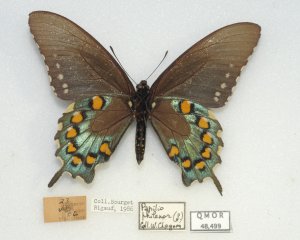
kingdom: Animalia
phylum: Arthropoda
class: Insecta
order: Lepidoptera
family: Papilionidae
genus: Battus
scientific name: Battus philenor
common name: Pipevine Swallowtail
